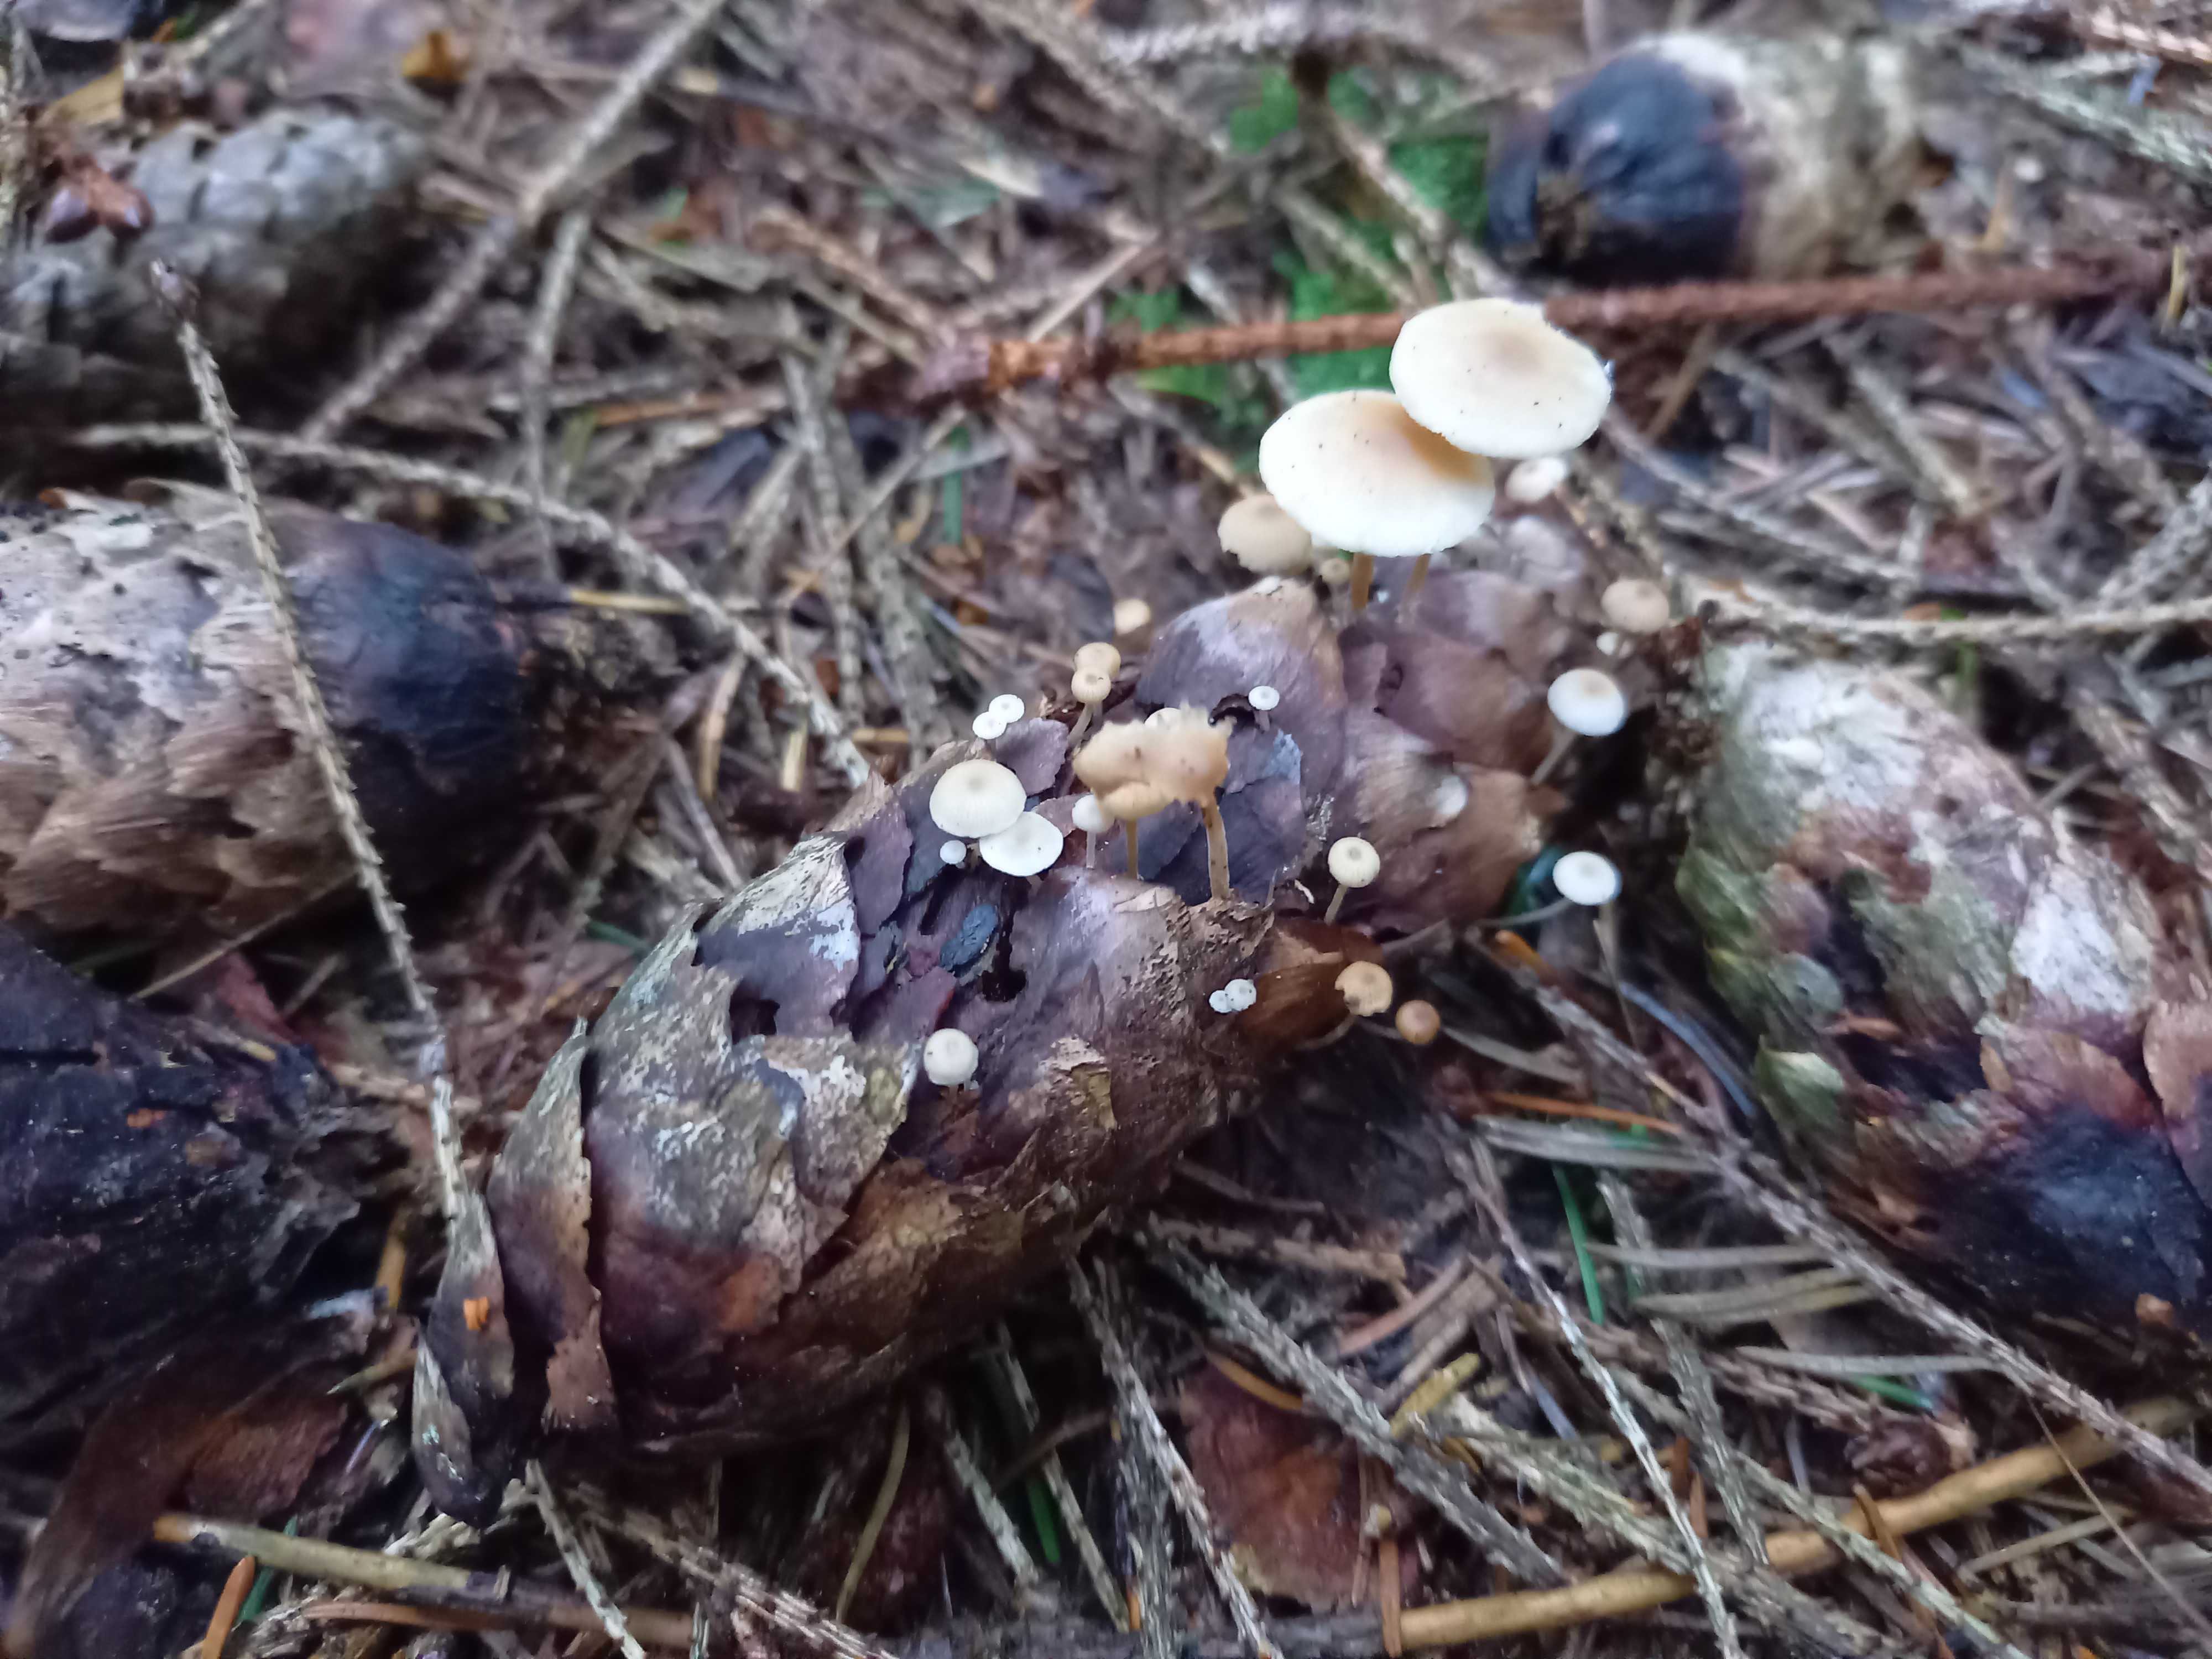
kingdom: Fungi
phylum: Basidiomycota
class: Agaricomycetes
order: Agaricales
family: Marasmiaceae
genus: Baeospora
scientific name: Baeospora myosura
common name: koglebruskhat
